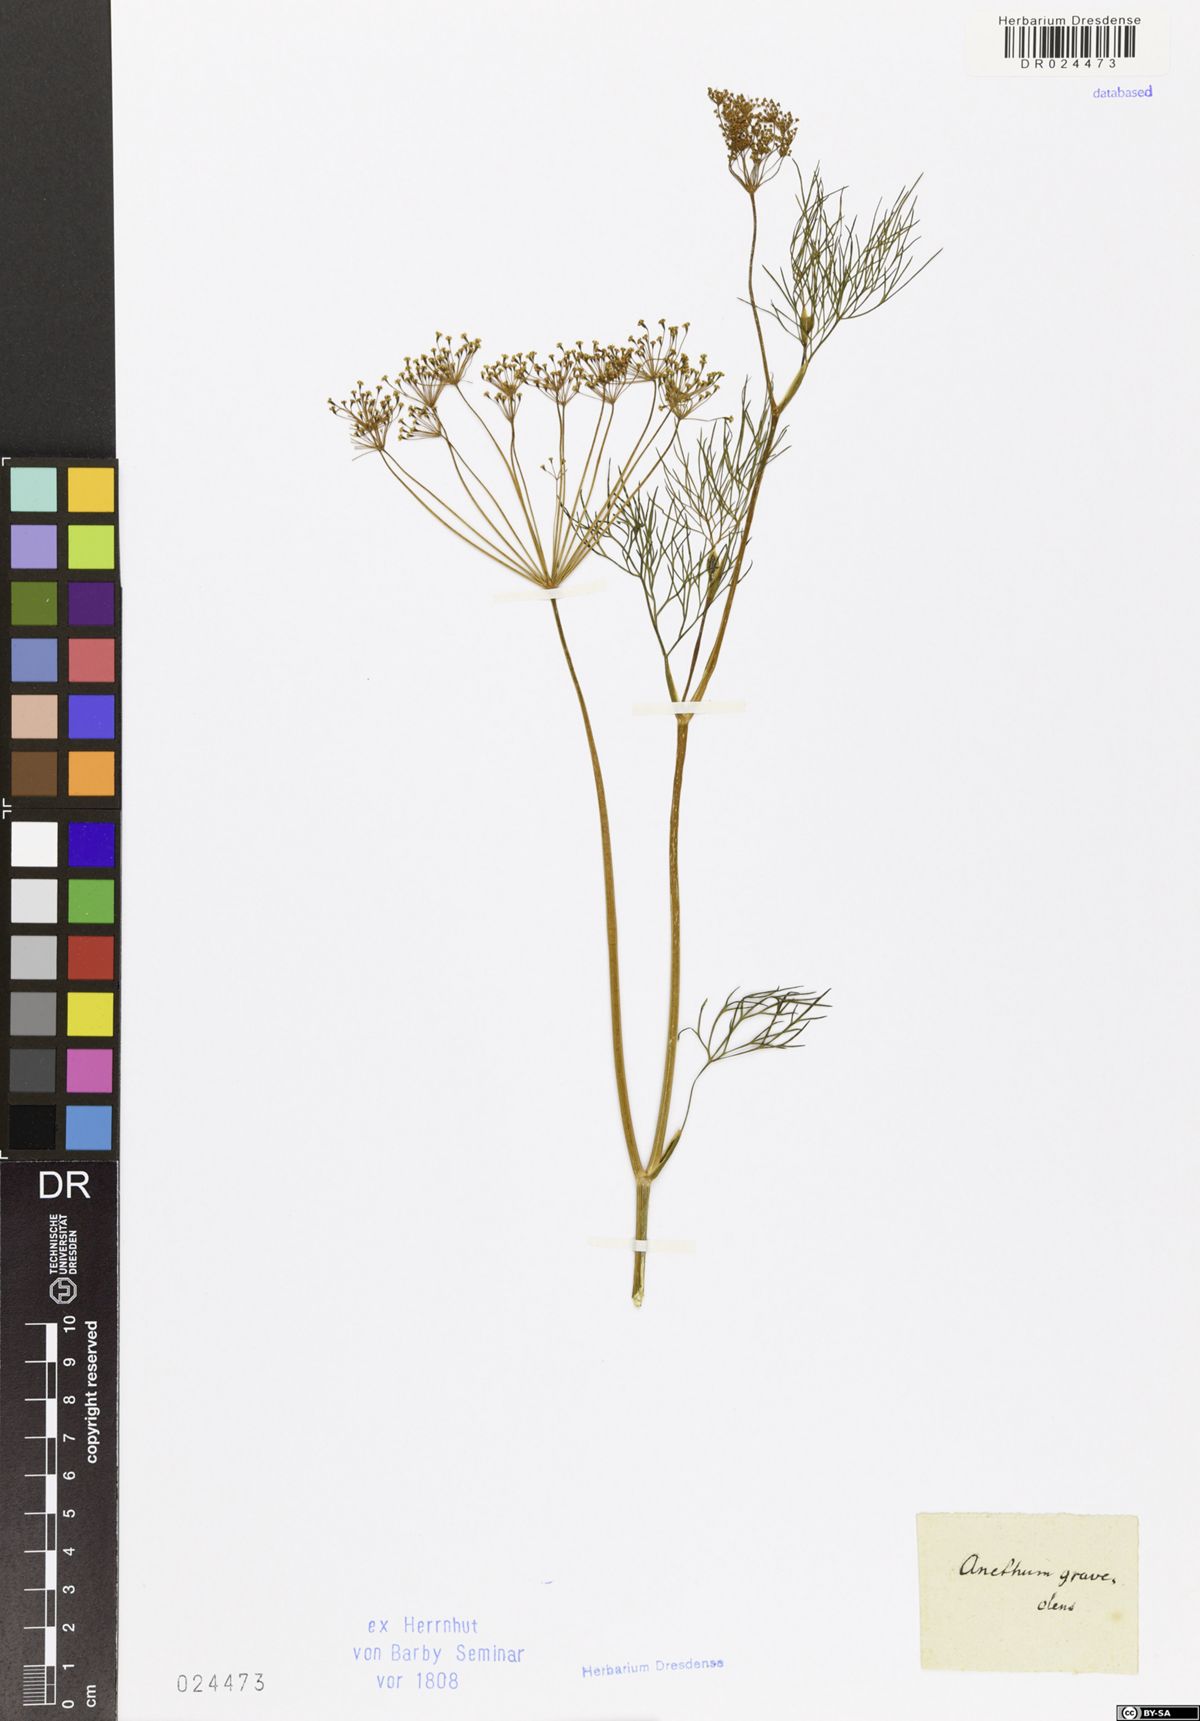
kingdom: Plantae
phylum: Tracheophyta
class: Magnoliopsida
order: Apiales
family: Apiaceae
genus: Anethum
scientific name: Anethum graveolens
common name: Dill
